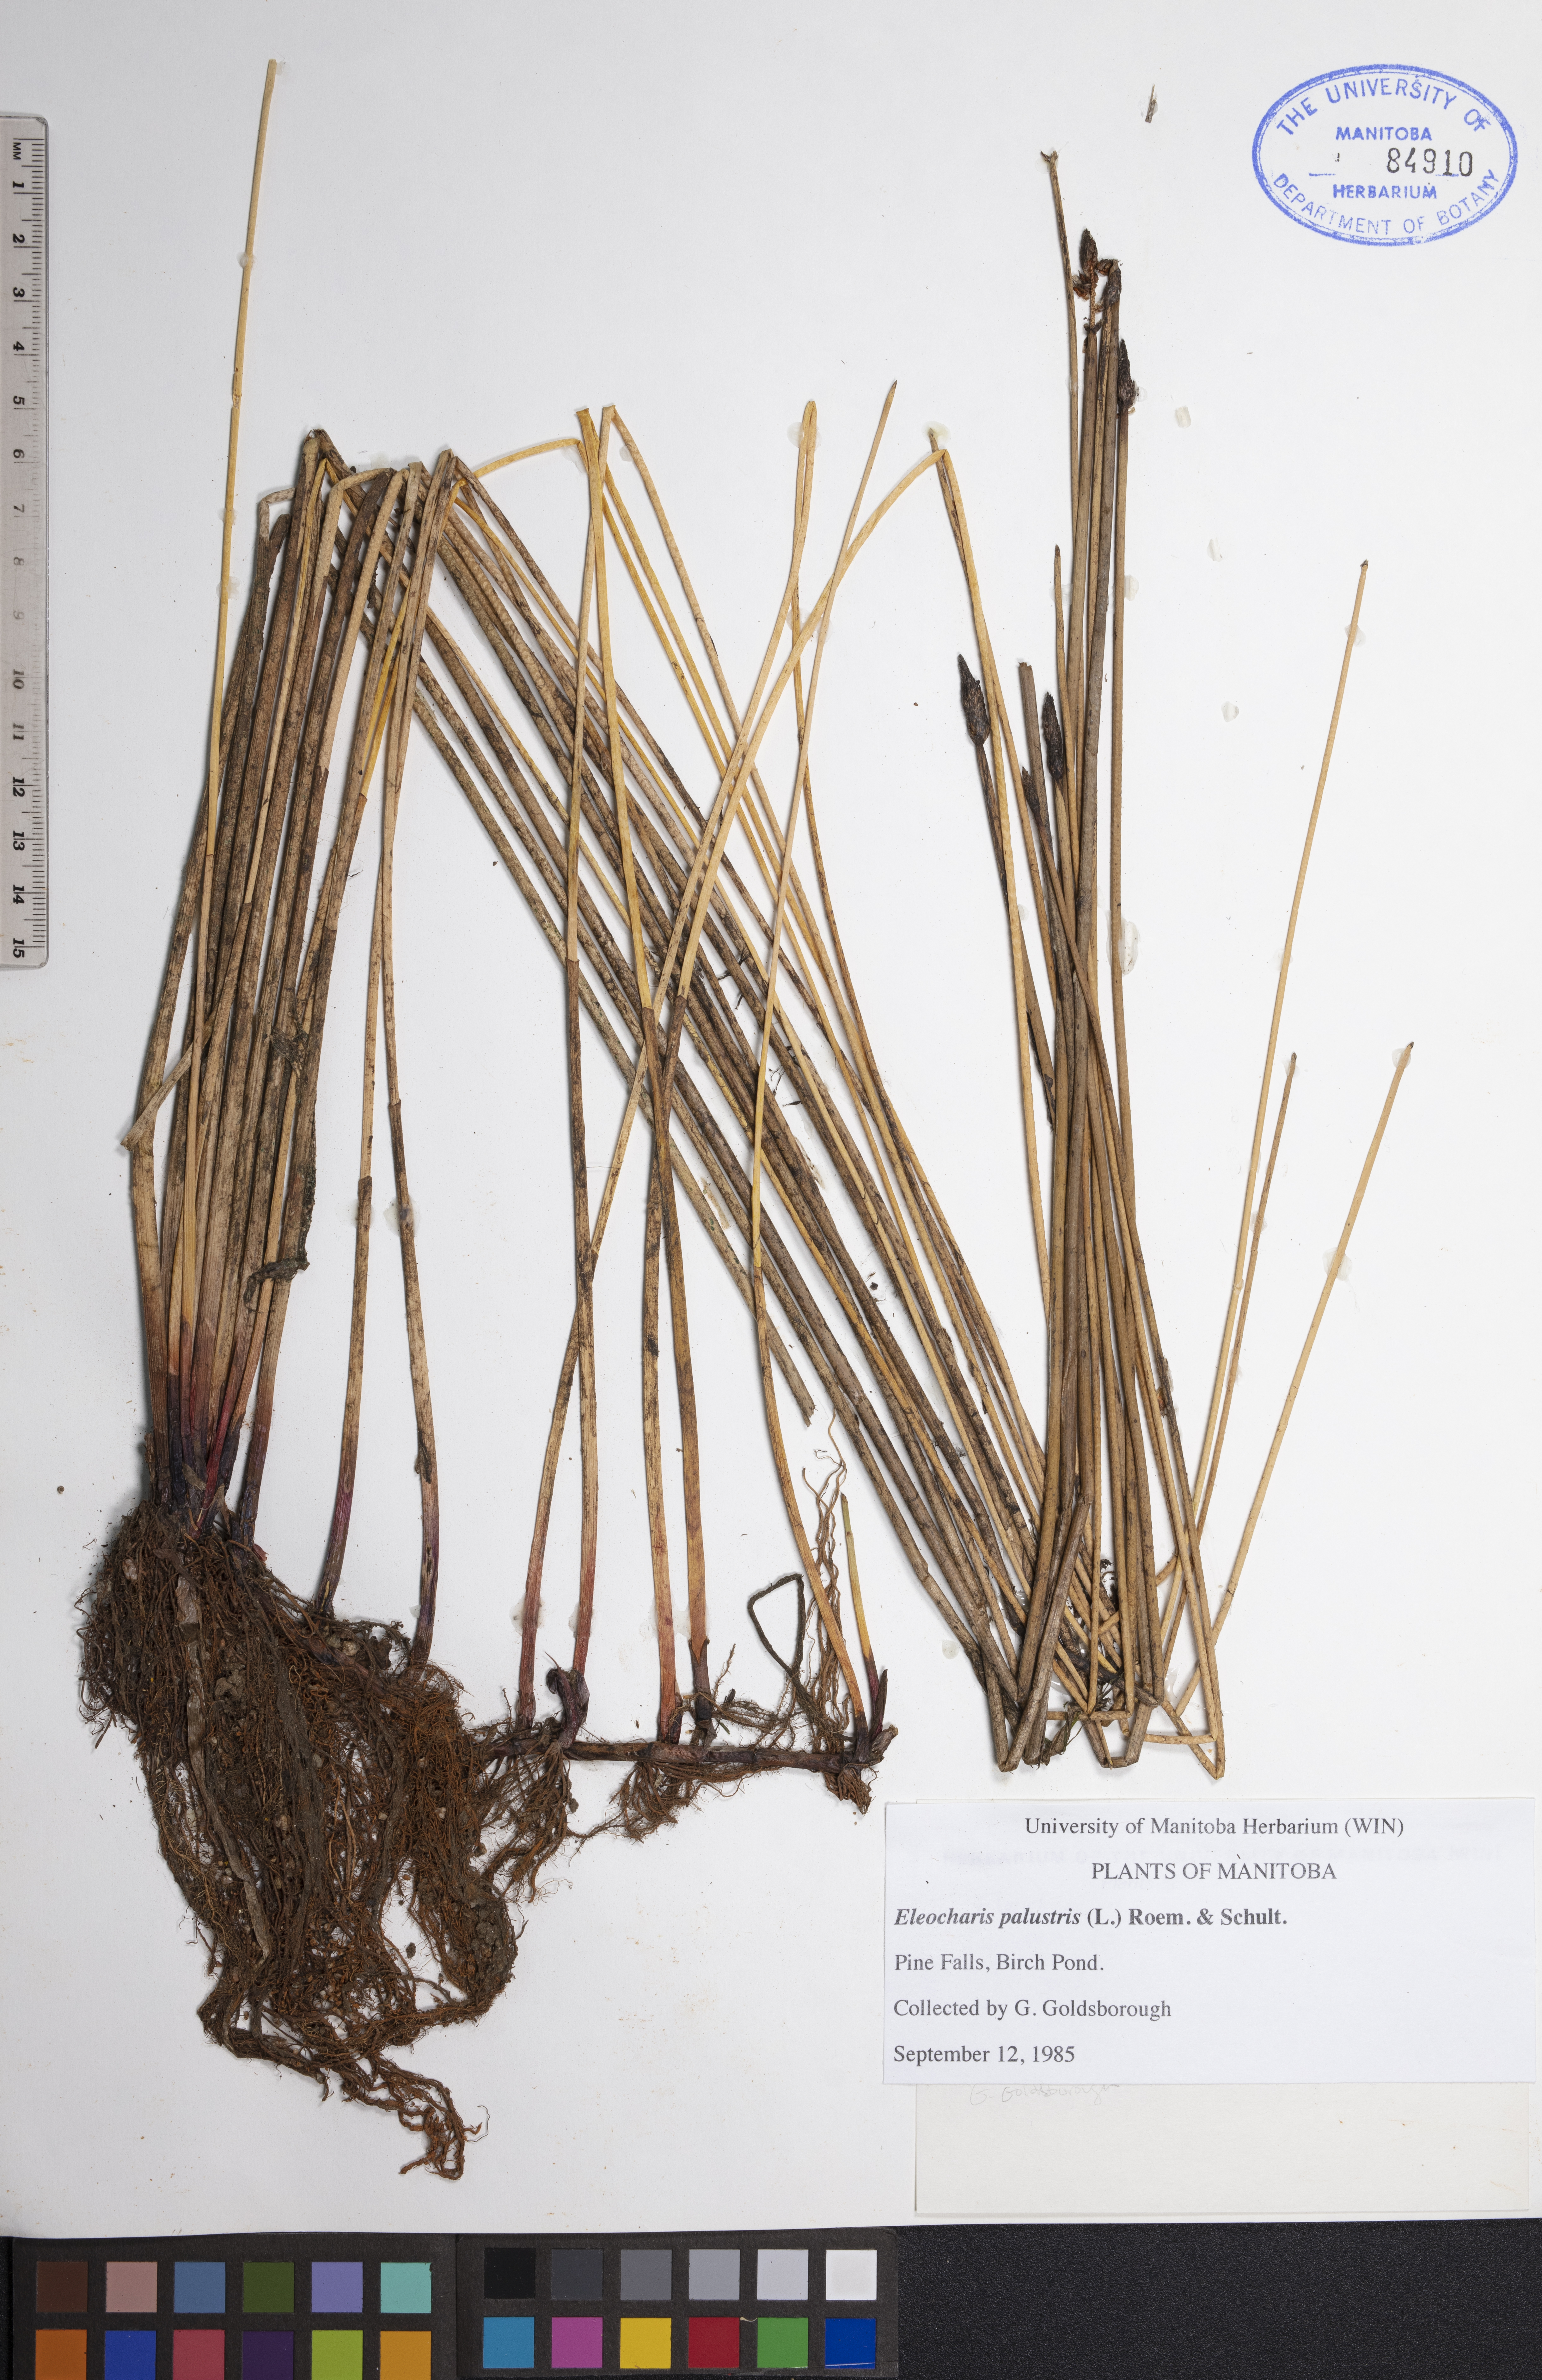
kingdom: Plantae
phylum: Tracheophyta
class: Liliopsida
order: Poales
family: Cyperaceae
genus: Eleocharis
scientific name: Eleocharis palustris
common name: Common spike-rush
